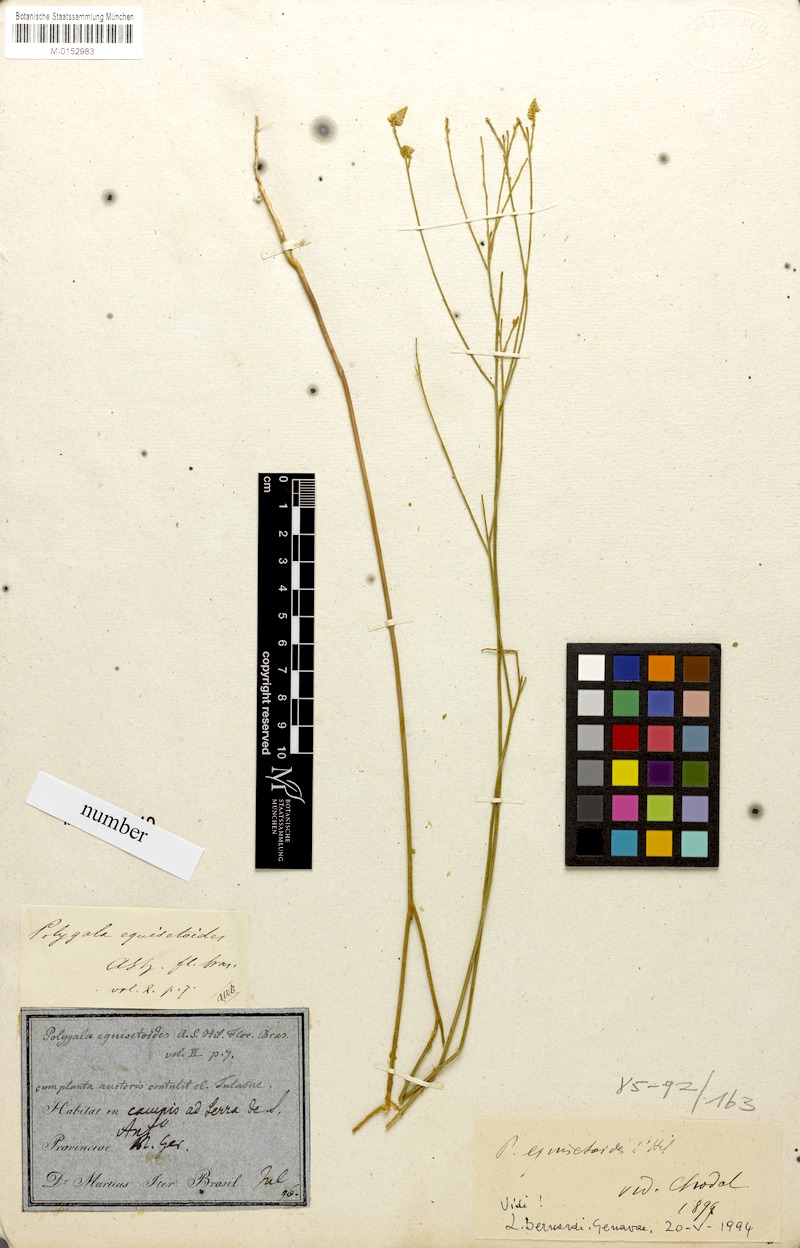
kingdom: Plantae
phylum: Tracheophyta
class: Magnoliopsida
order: Fabales
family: Polygalaceae
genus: Polygala
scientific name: Polygala equisetoides
